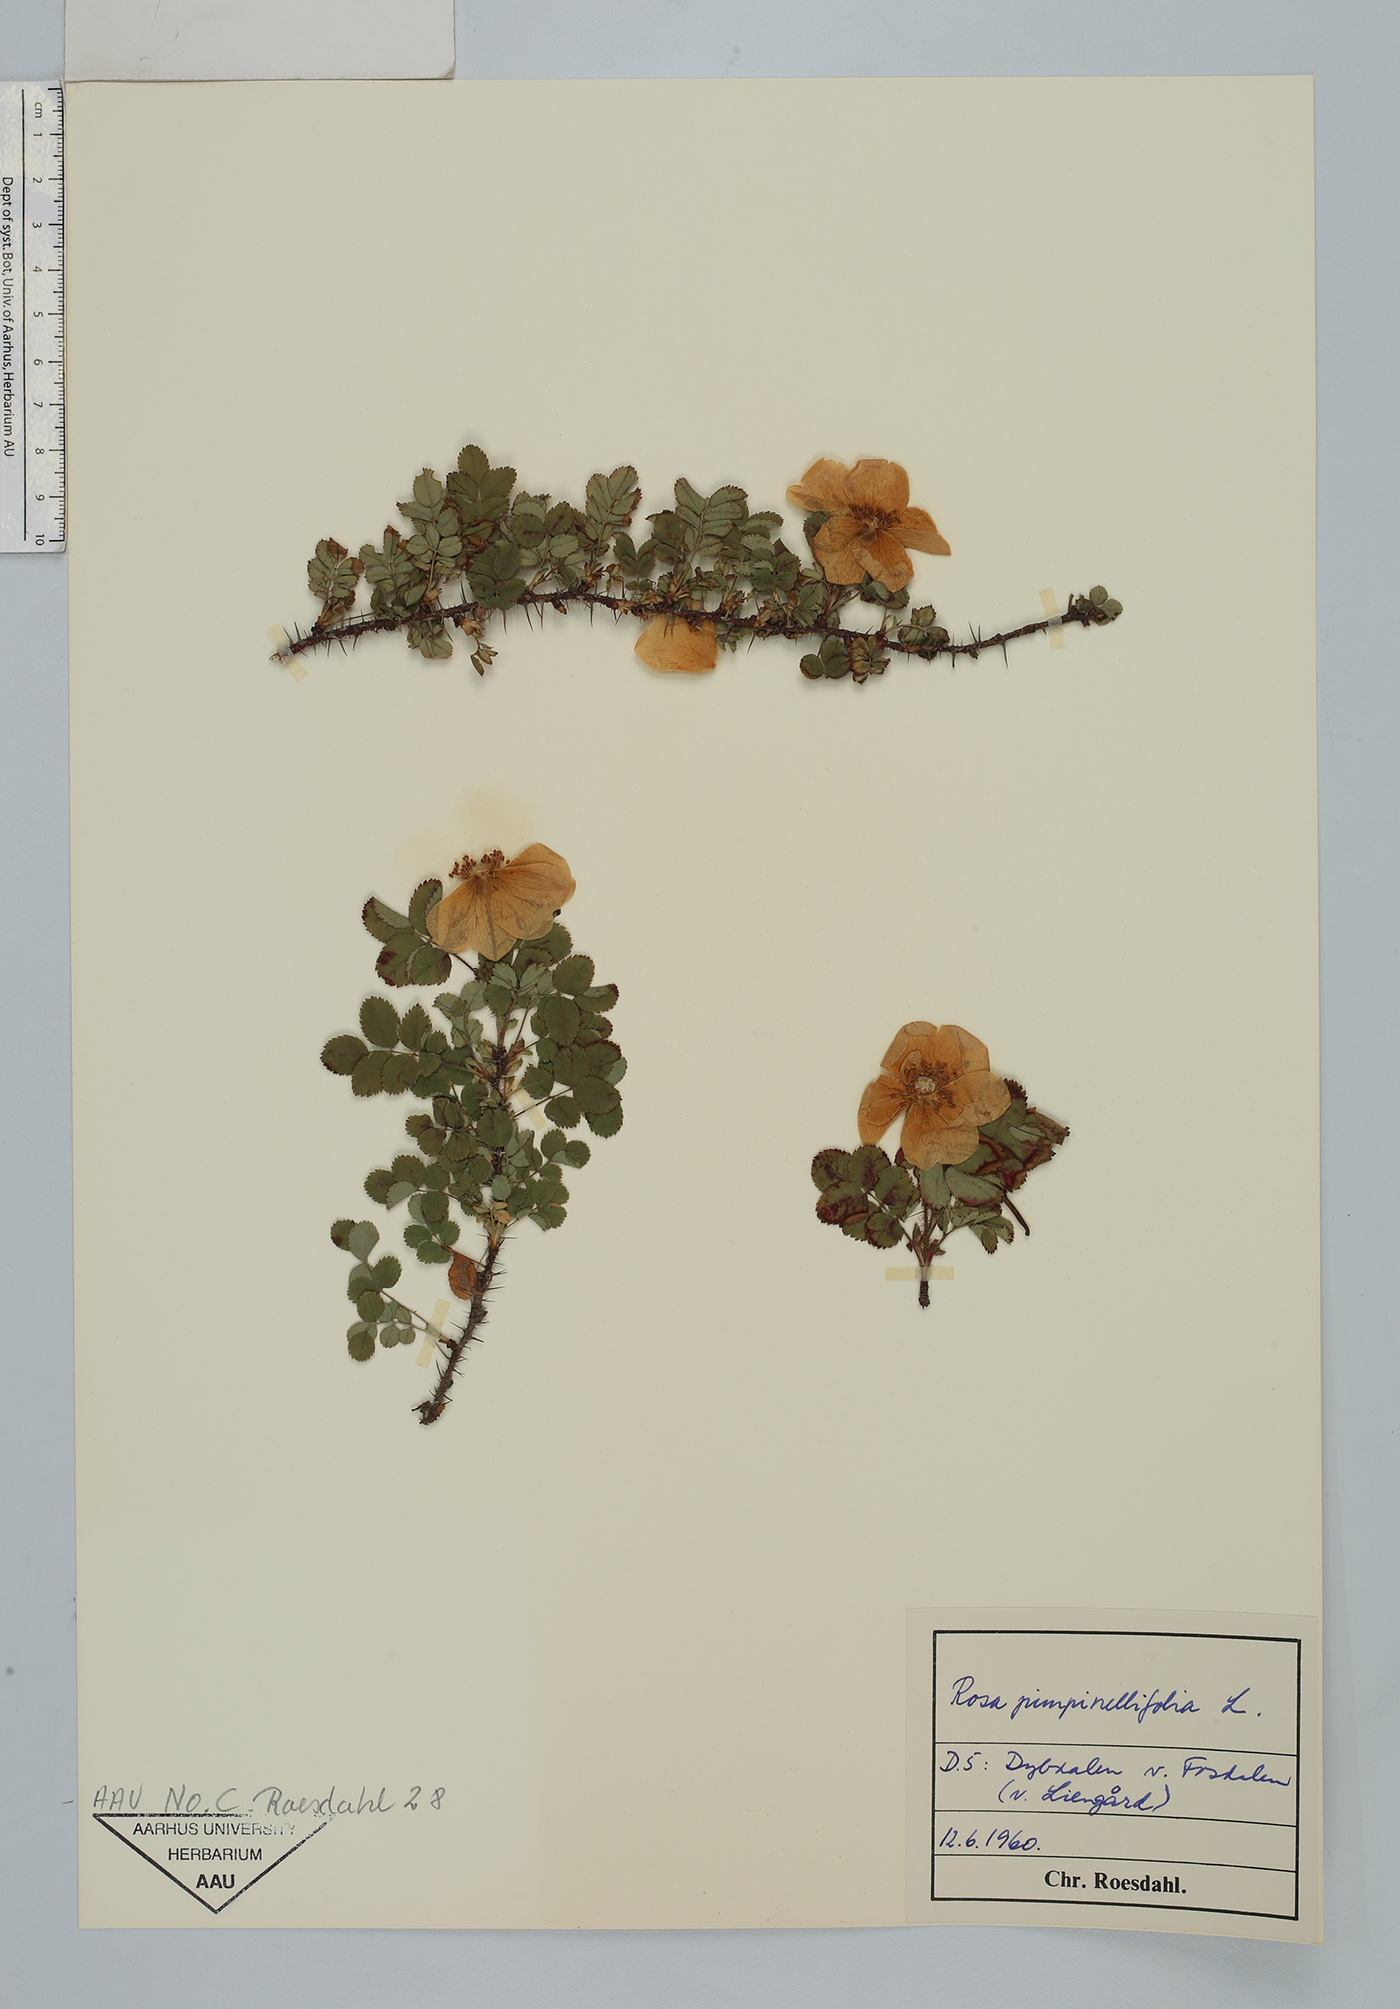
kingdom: Plantae
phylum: Tracheophyta
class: Magnoliopsida
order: Rosales
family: Rosaceae
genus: Rosa
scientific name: Rosa spinosissima
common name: Burnet rose
